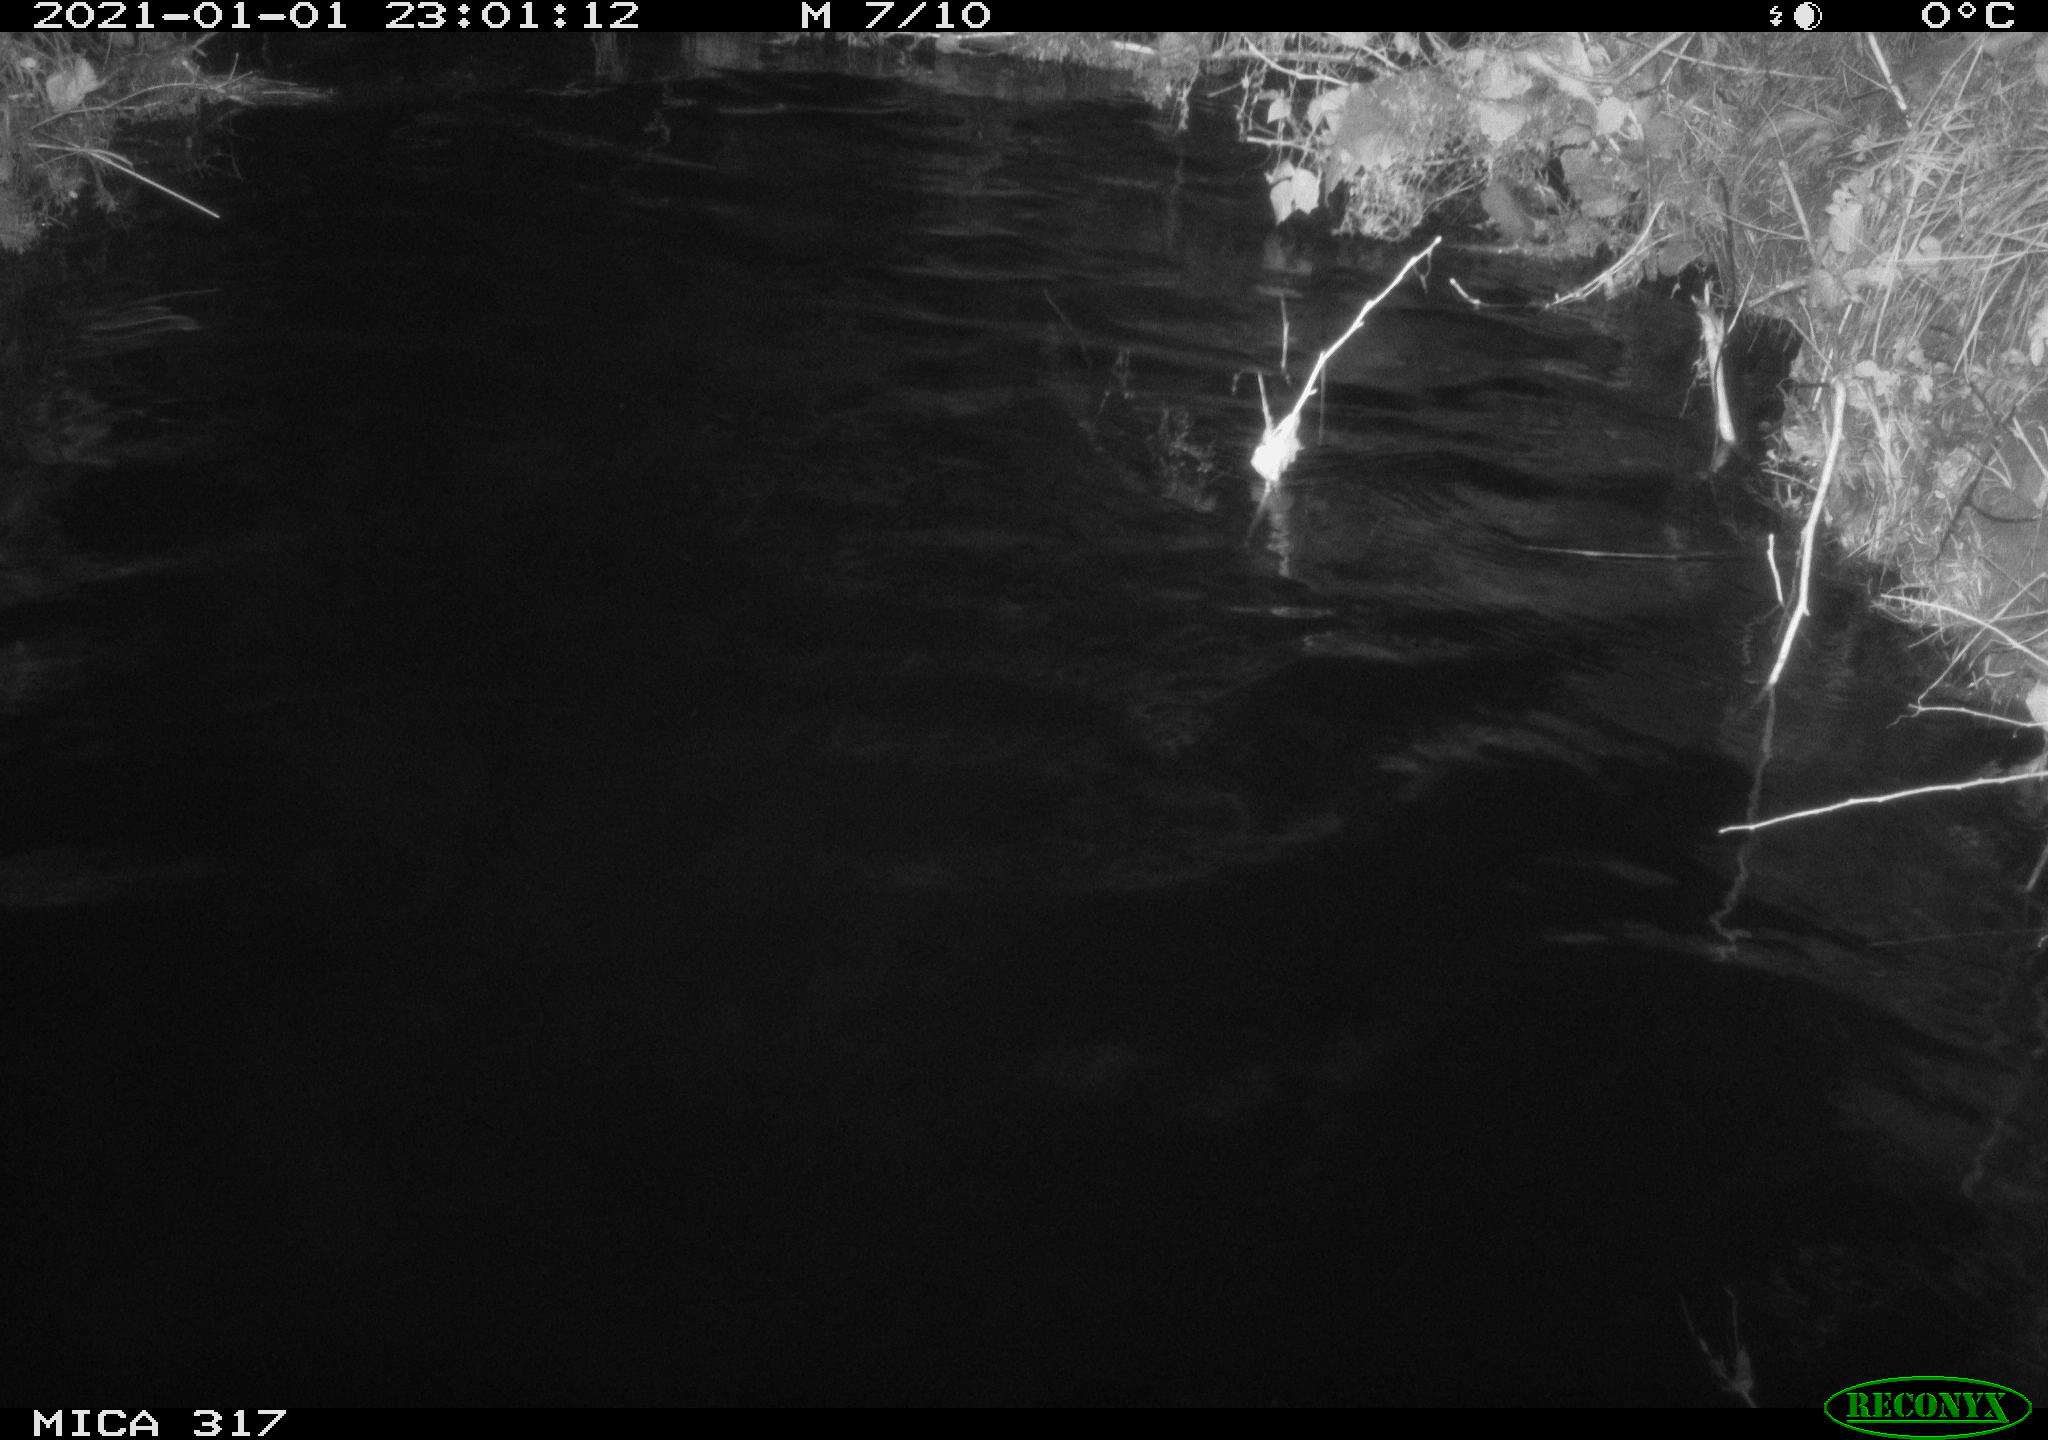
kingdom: Animalia
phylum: Chordata
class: Aves
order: Anseriformes
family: Anatidae
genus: Anas
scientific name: Anas platyrhynchos
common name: Mallard
